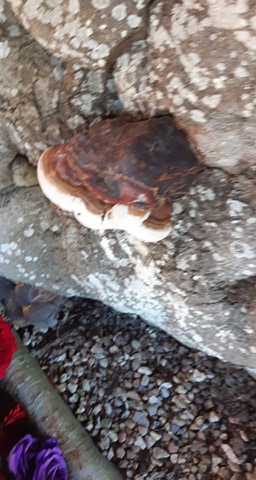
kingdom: Fungi
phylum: Basidiomycota
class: Agaricomycetes
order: Polyporales
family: Polyporaceae
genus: Ganoderma
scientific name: Ganoderma pfeifferi
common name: kobberrød lakporesvamp
